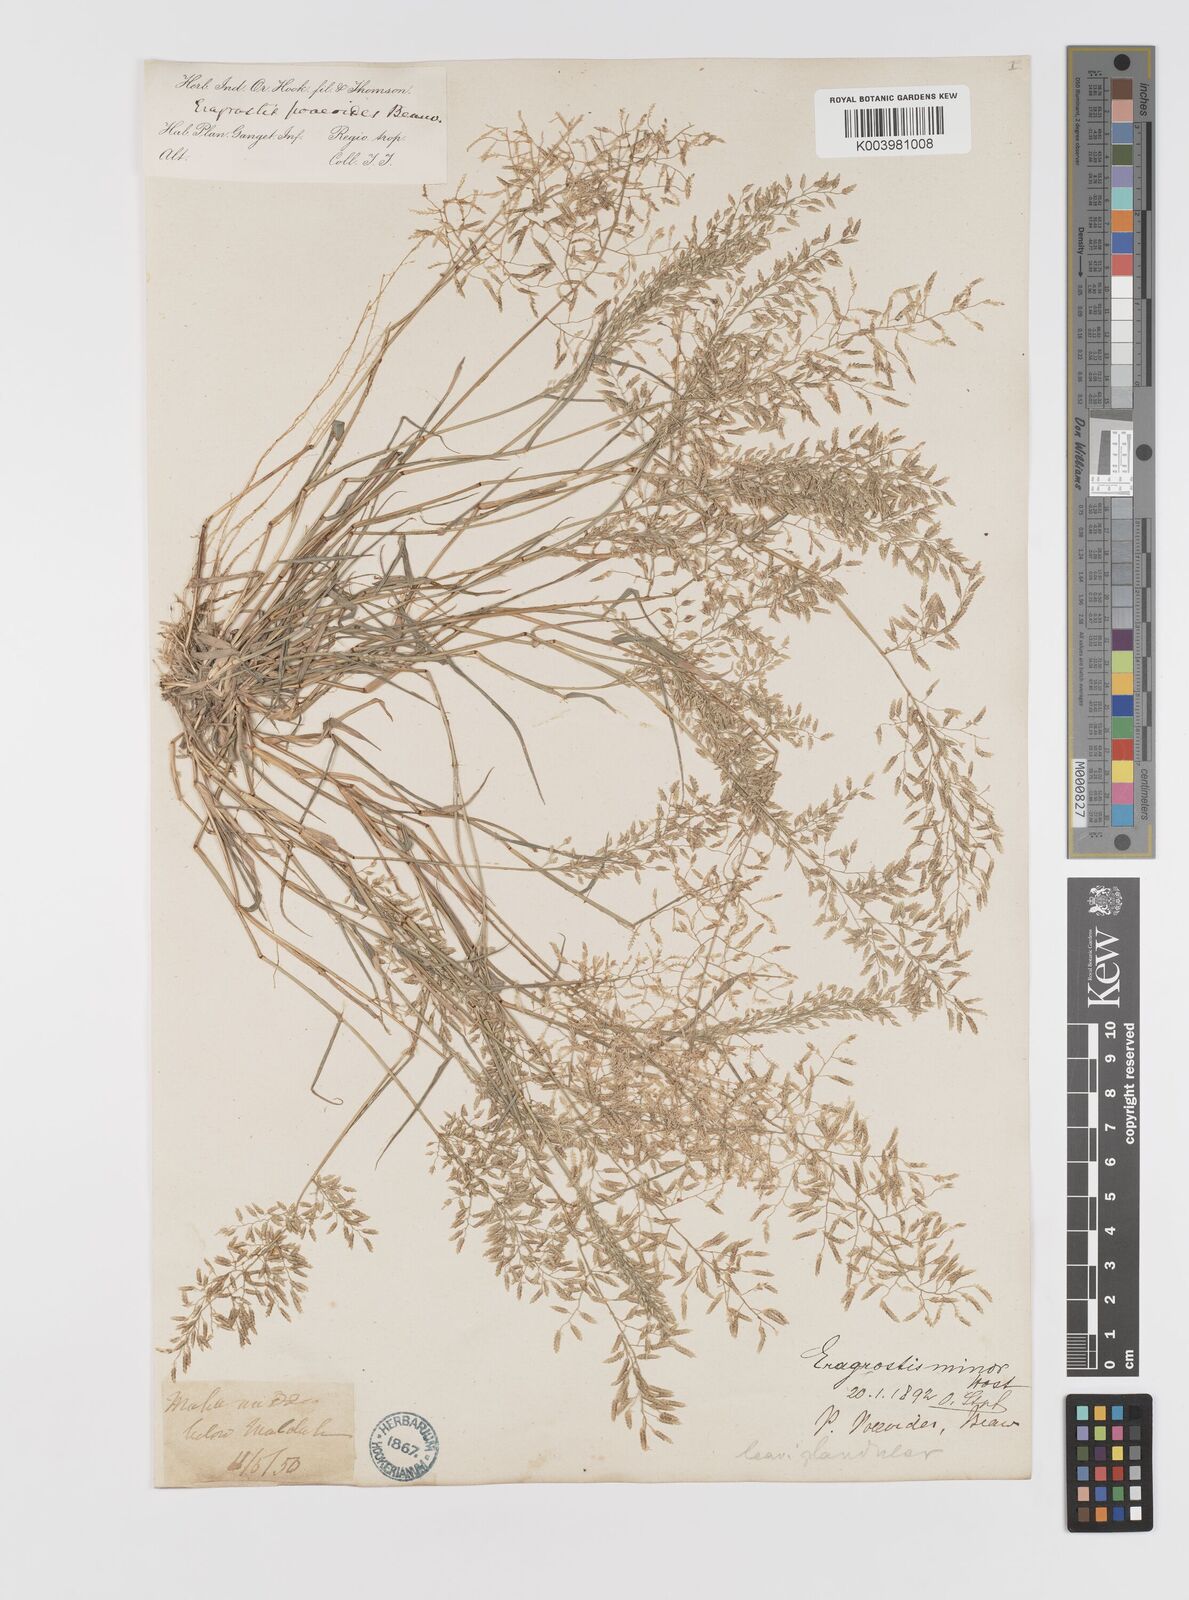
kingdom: Plantae
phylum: Tracheophyta
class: Liliopsida
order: Poales
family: Poaceae
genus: Eragrostis
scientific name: Eragrostis minor
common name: Small love-grass
